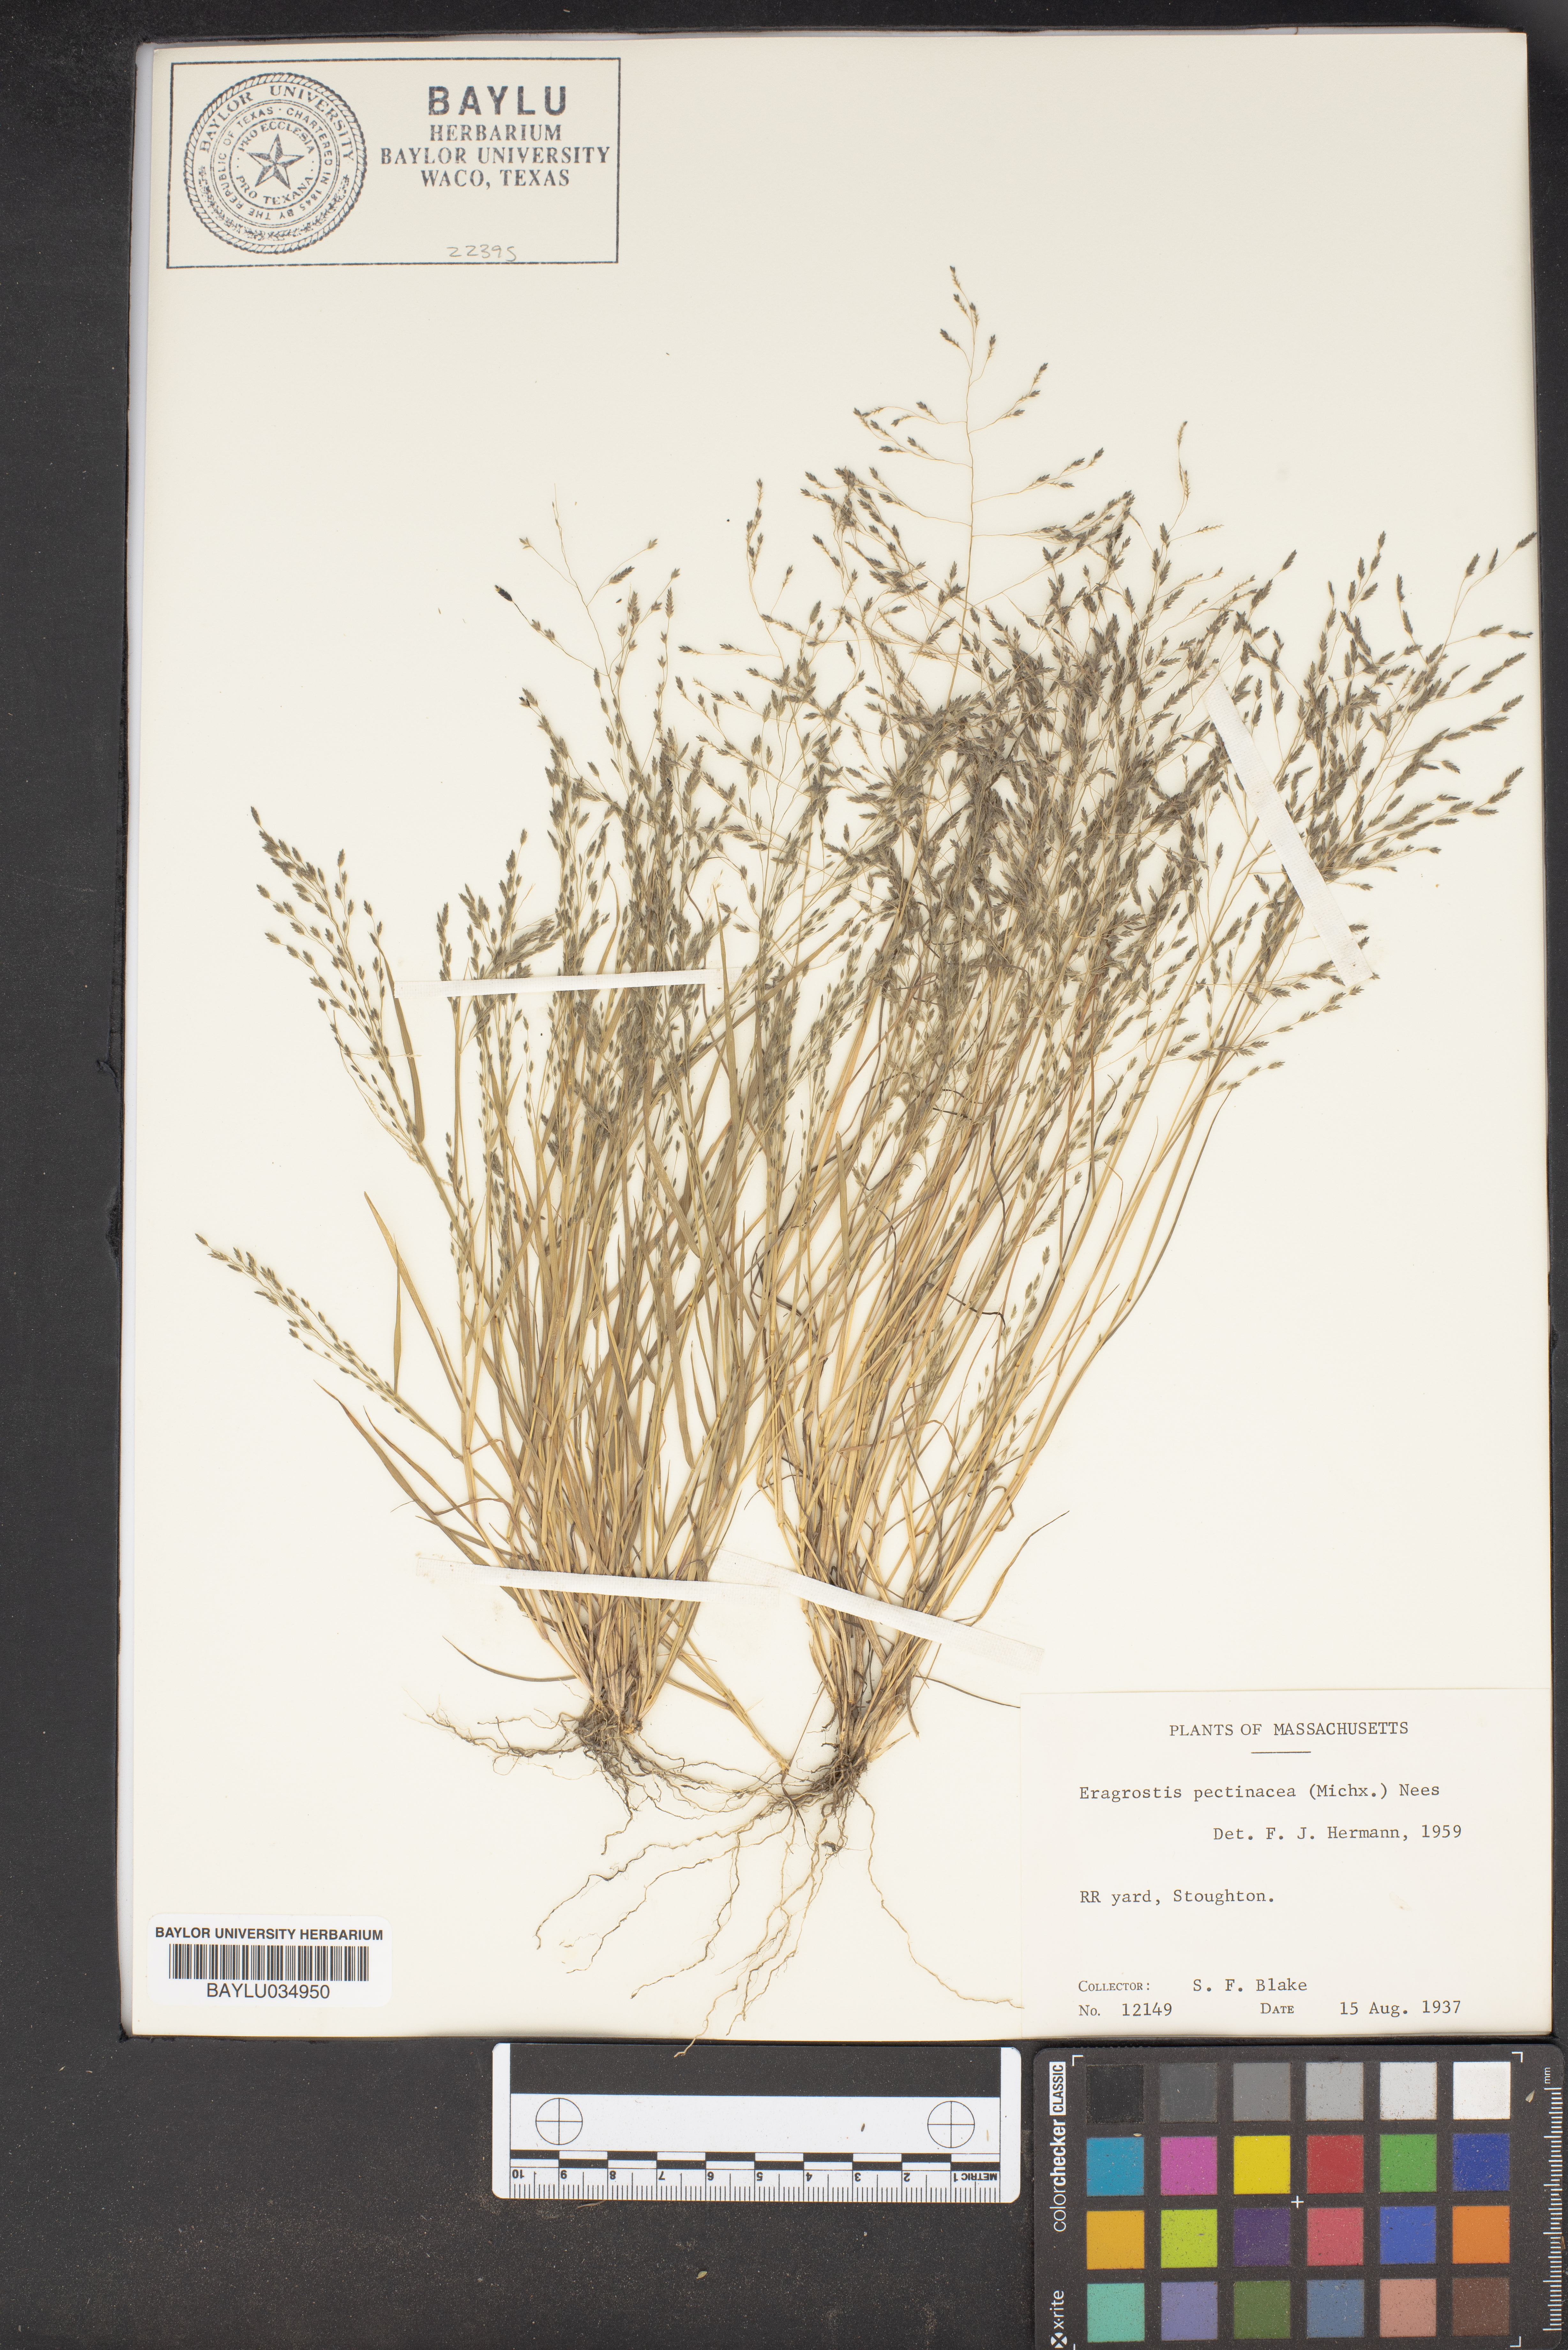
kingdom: Plantae
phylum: Tracheophyta
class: Liliopsida
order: Poales
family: Poaceae
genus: Eragrostis
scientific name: Eragrostis pectinacea
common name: Tufted lovegrass
